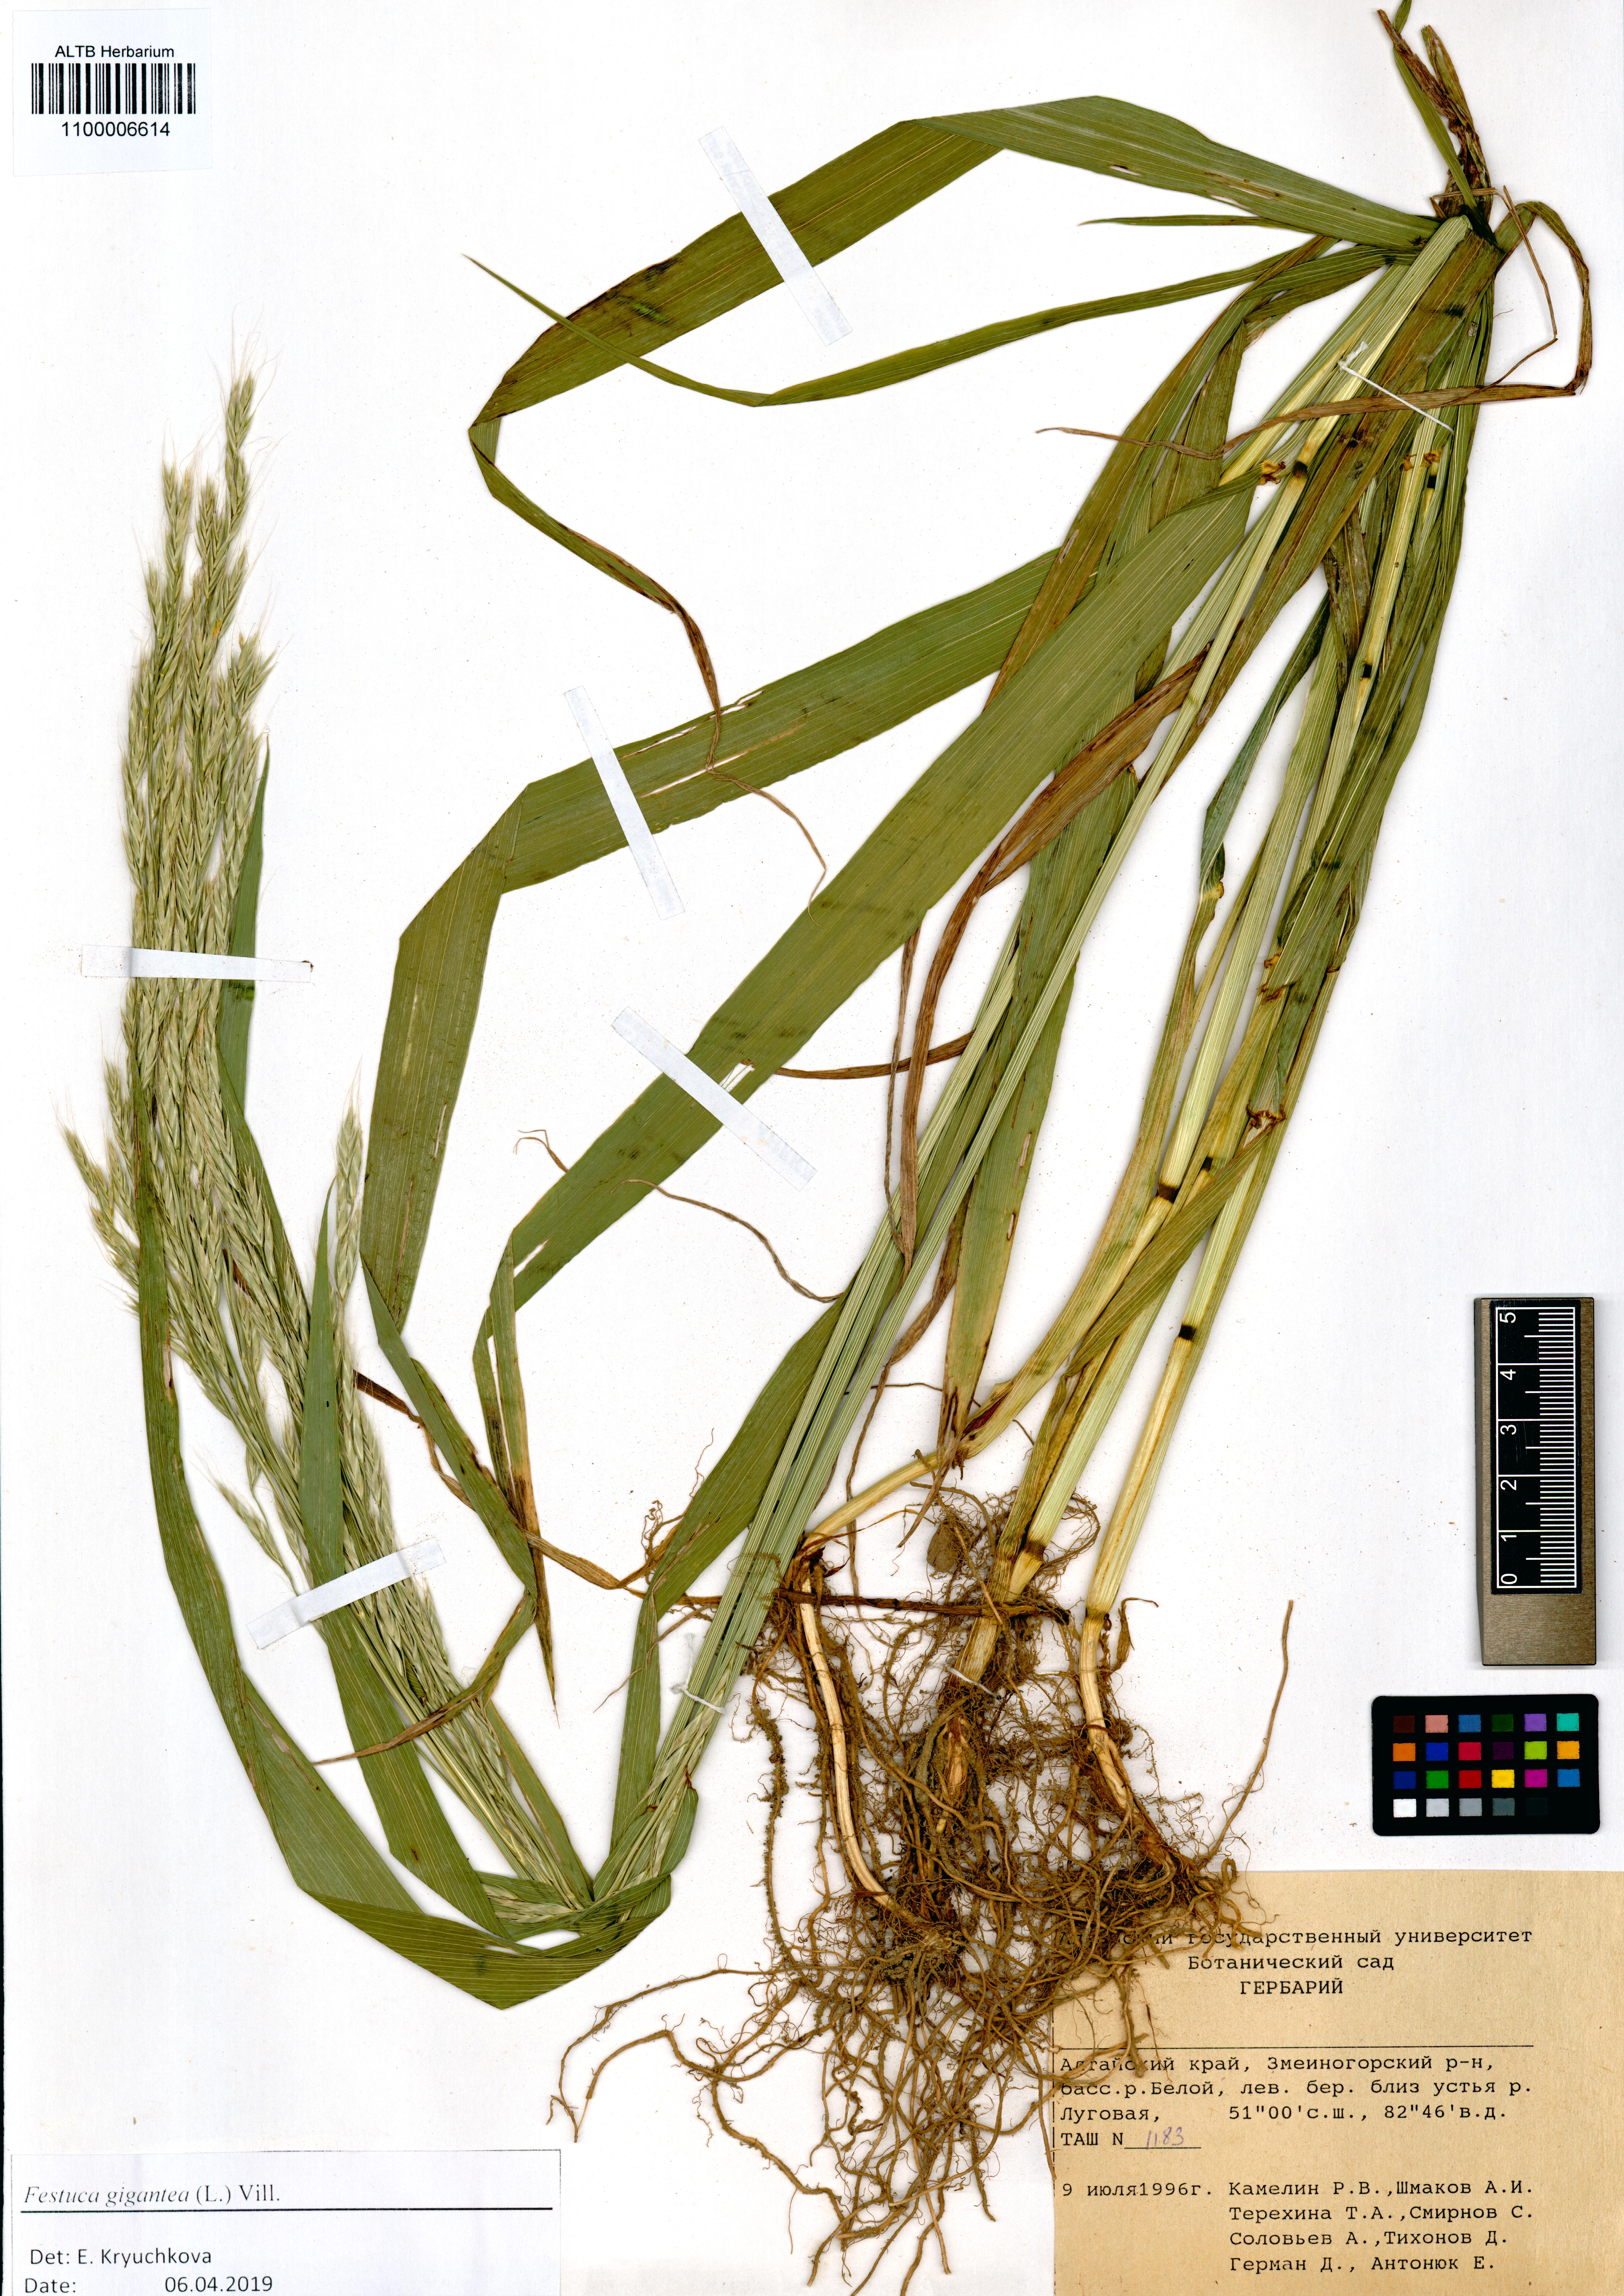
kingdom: Plantae
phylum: Tracheophyta
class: Liliopsida
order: Poales
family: Poaceae
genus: Lolium
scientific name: Lolium giganteum
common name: Giant fescue
